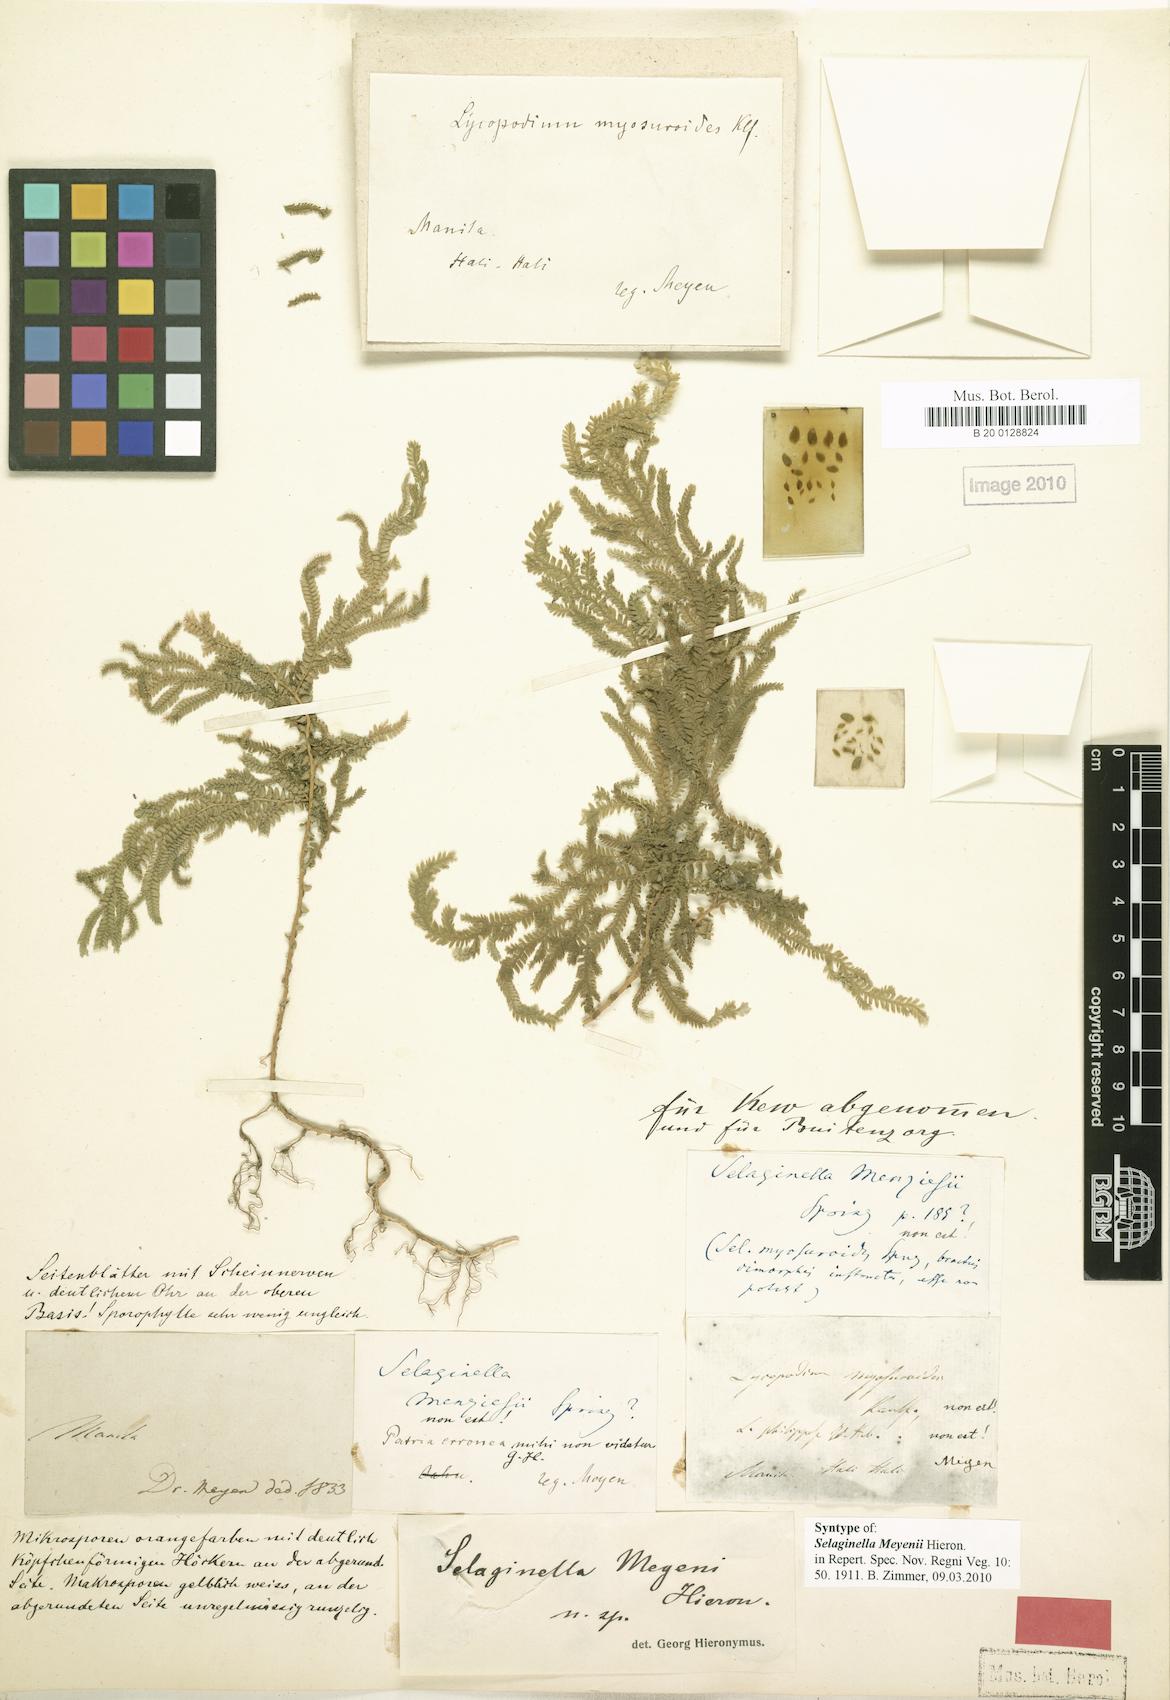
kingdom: Plantae
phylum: Tracheophyta
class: Lycopodiopsida
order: Selaginellales
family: Selaginellaceae
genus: Selaginella
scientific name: Selaginella jagorii
